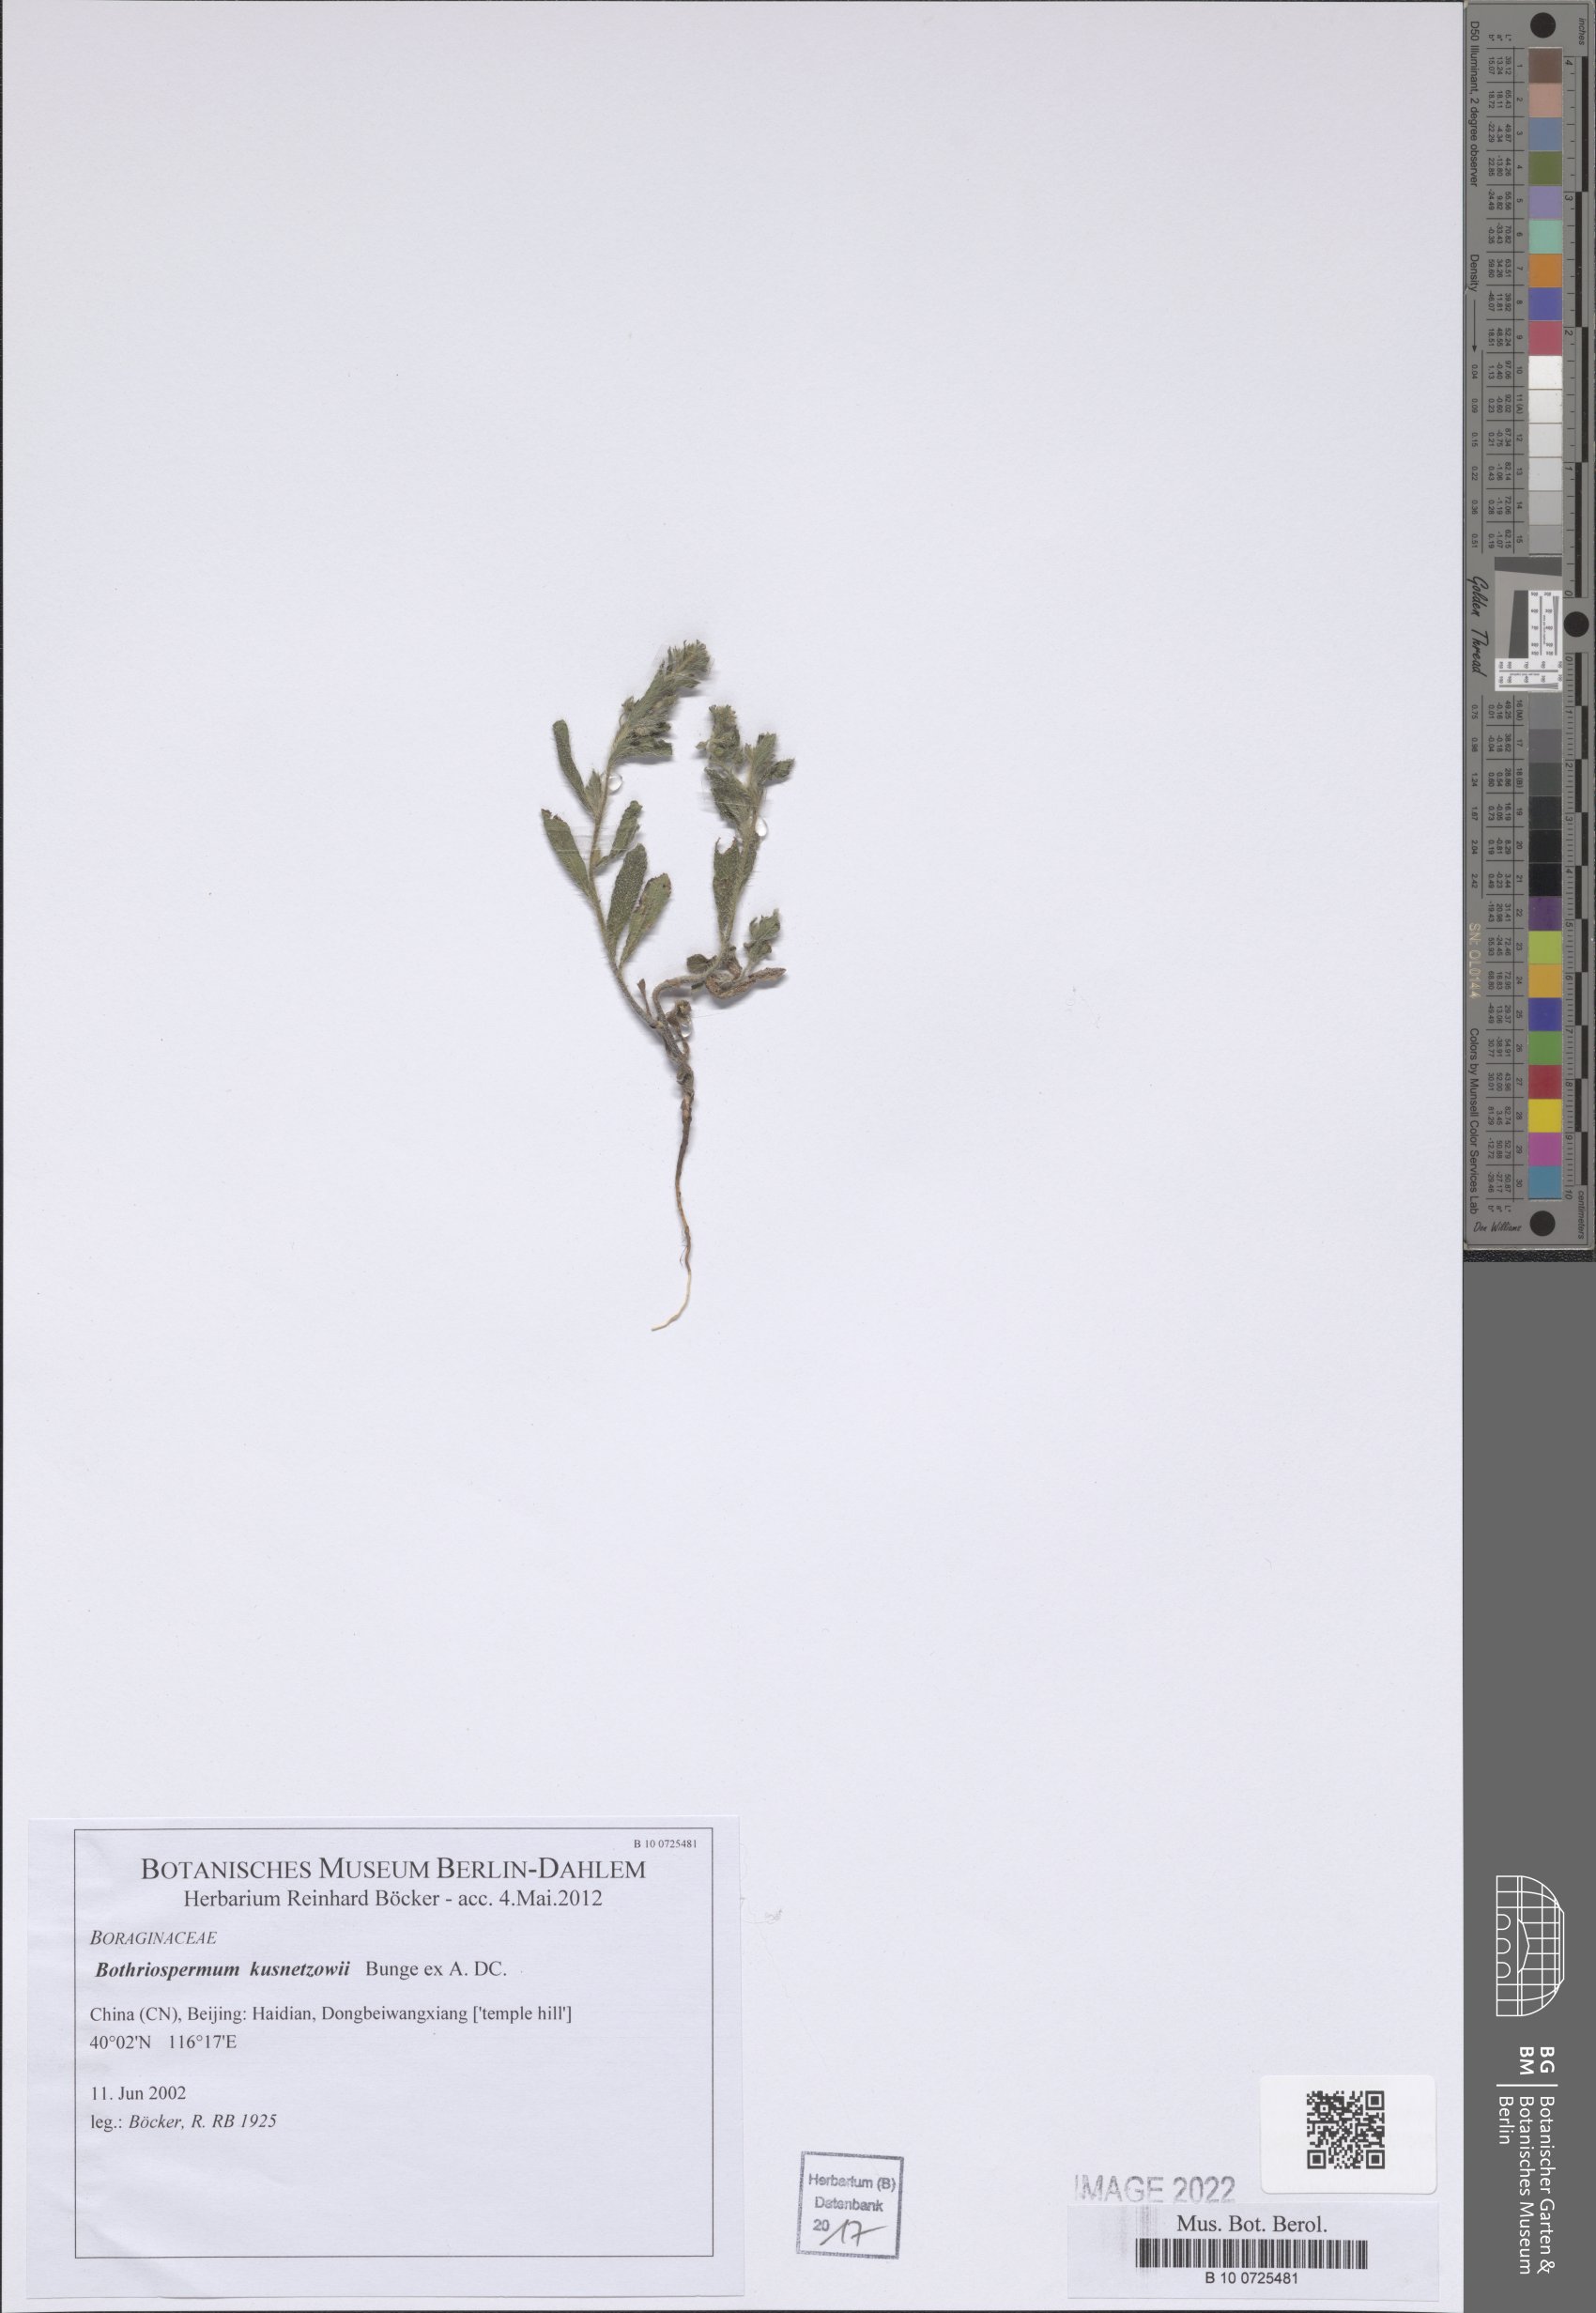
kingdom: Plantae
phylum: Tracheophyta
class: Magnoliopsida
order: Boraginales
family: Boraginaceae
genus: Bothriospermum
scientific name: Bothriospermum kusnetzowii
